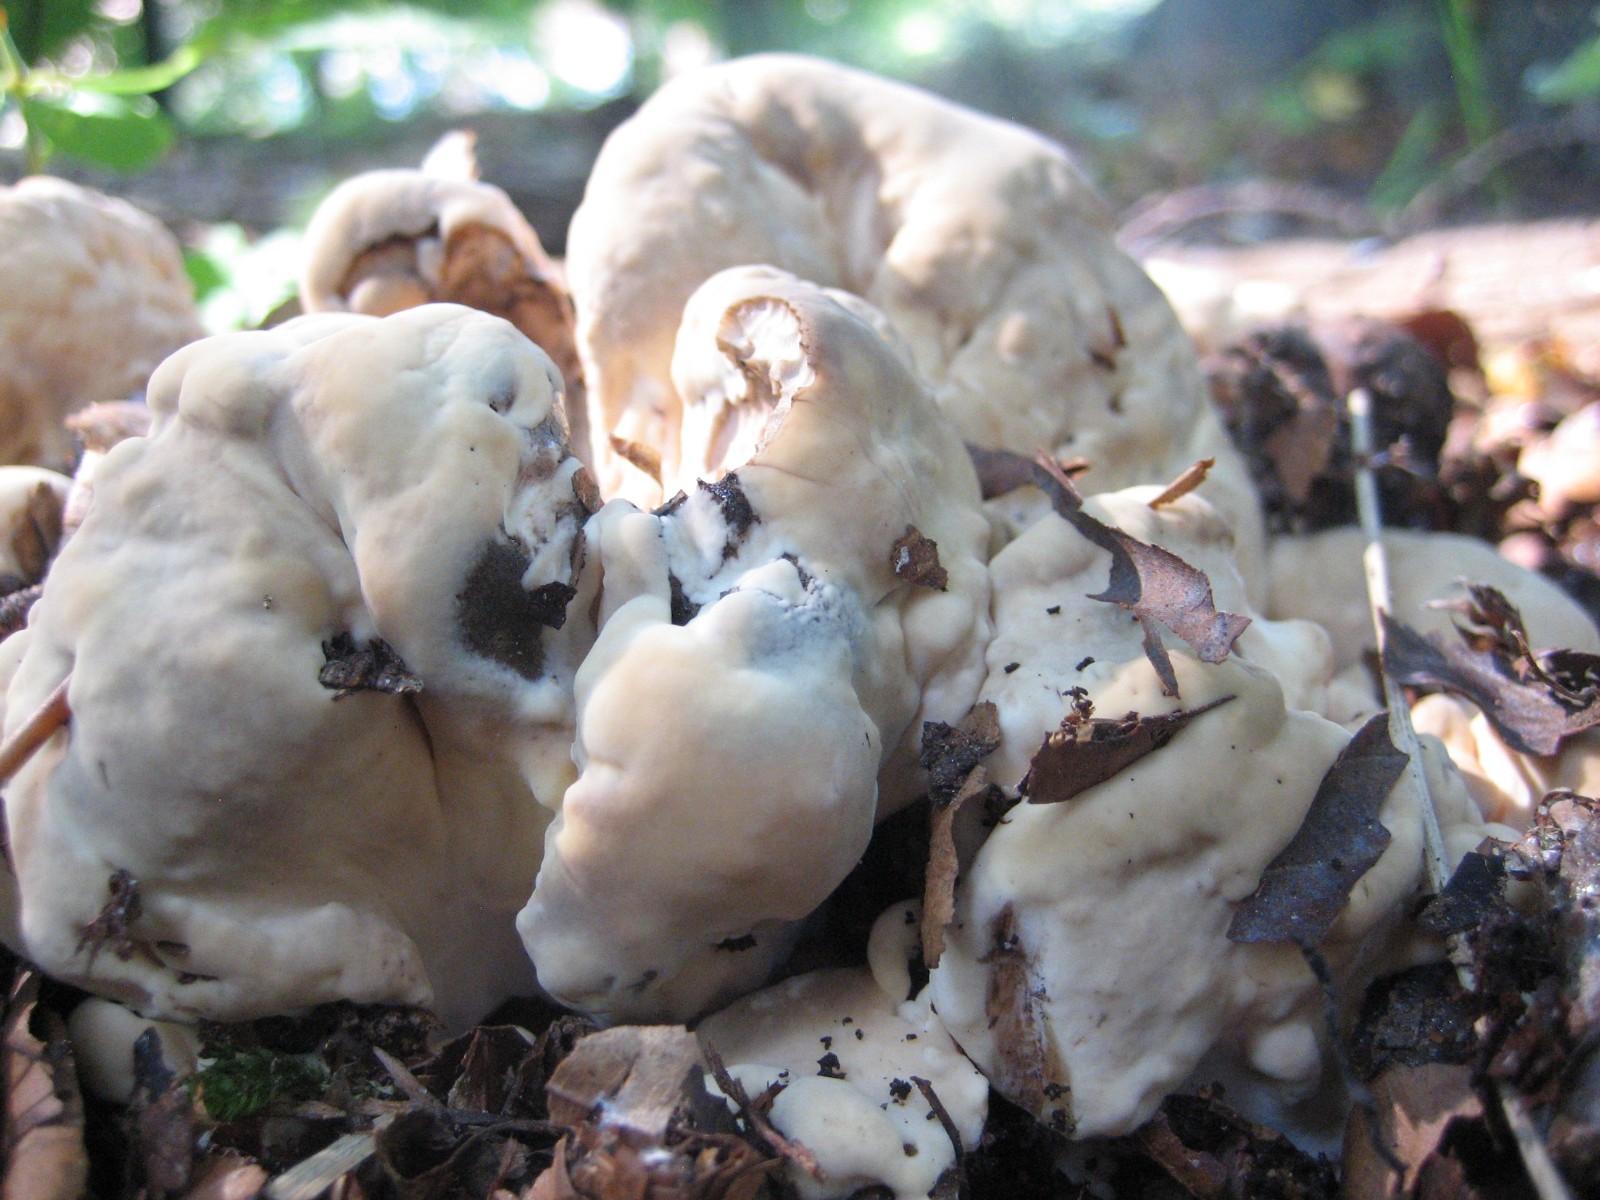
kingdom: Fungi
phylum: Basidiomycota
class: Agaricomycetes
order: Polyporales
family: Meripilaceae
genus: Meripilus
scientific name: Meripilus giganteus
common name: kæmpeporesvamp
